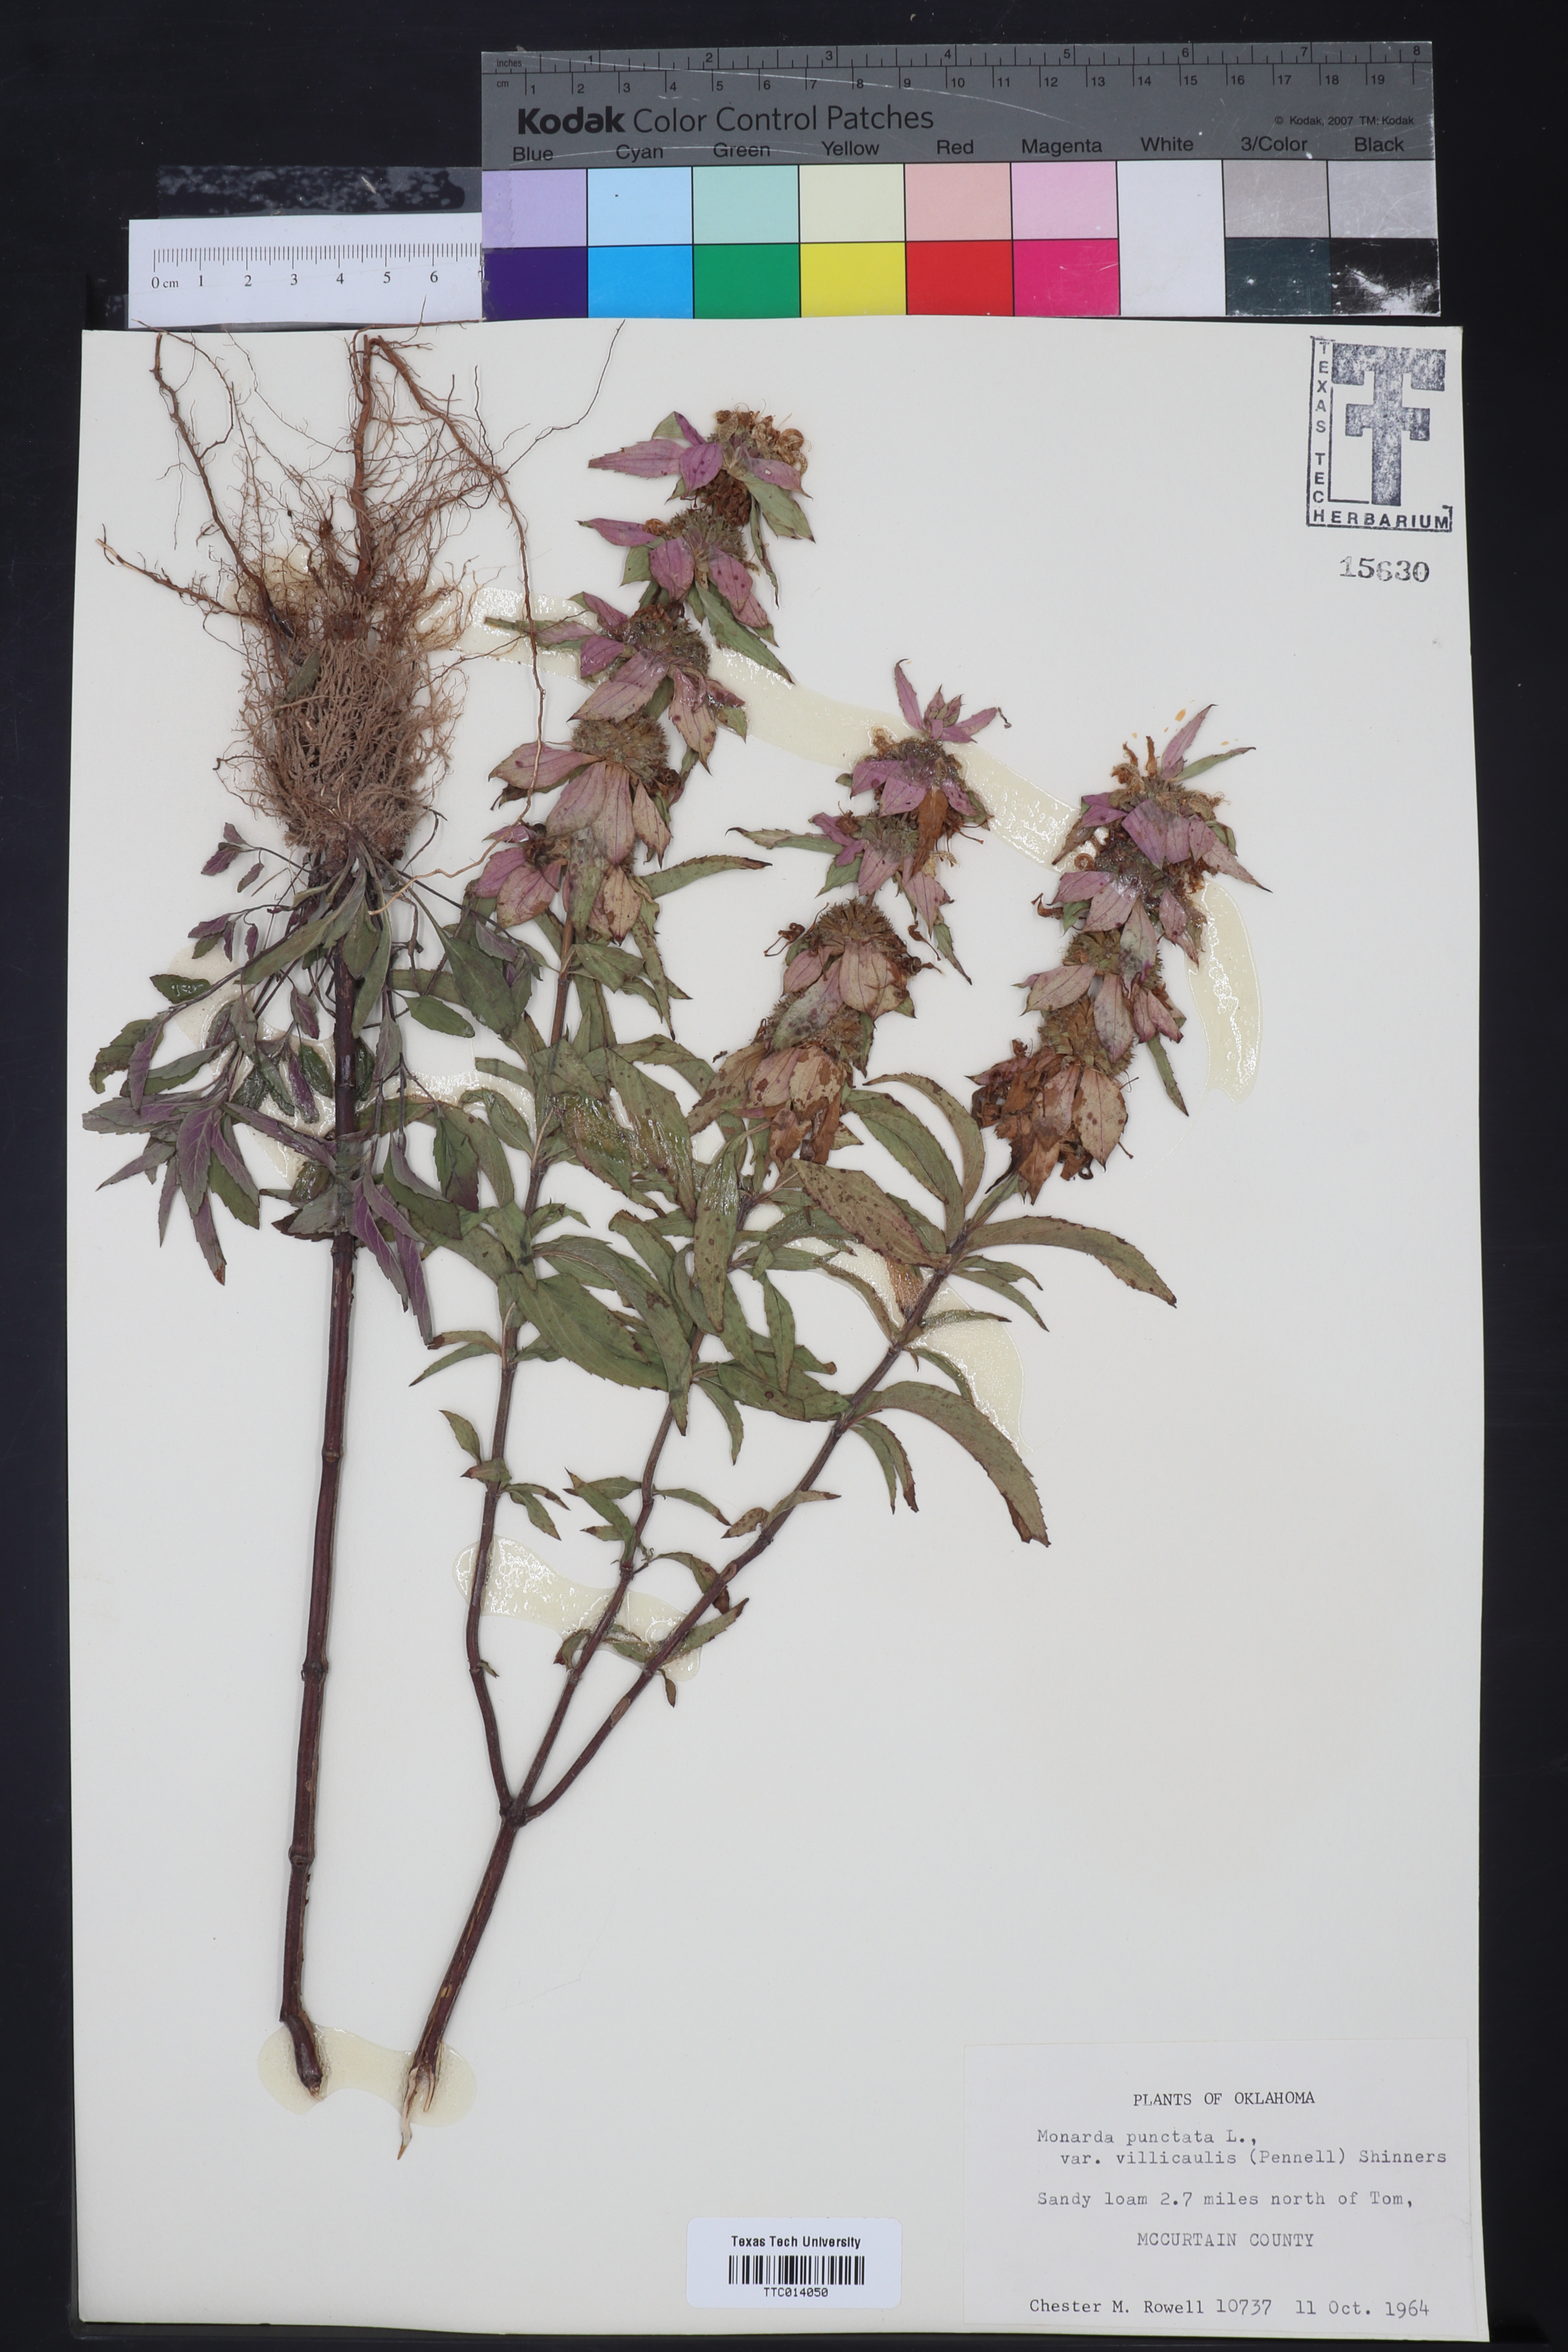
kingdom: Plantae
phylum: Tracheophyta
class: Magnoliopsida
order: Lamiales
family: Lamiaceae
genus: Monarda
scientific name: Monarda punctata
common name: Dotted monarda
